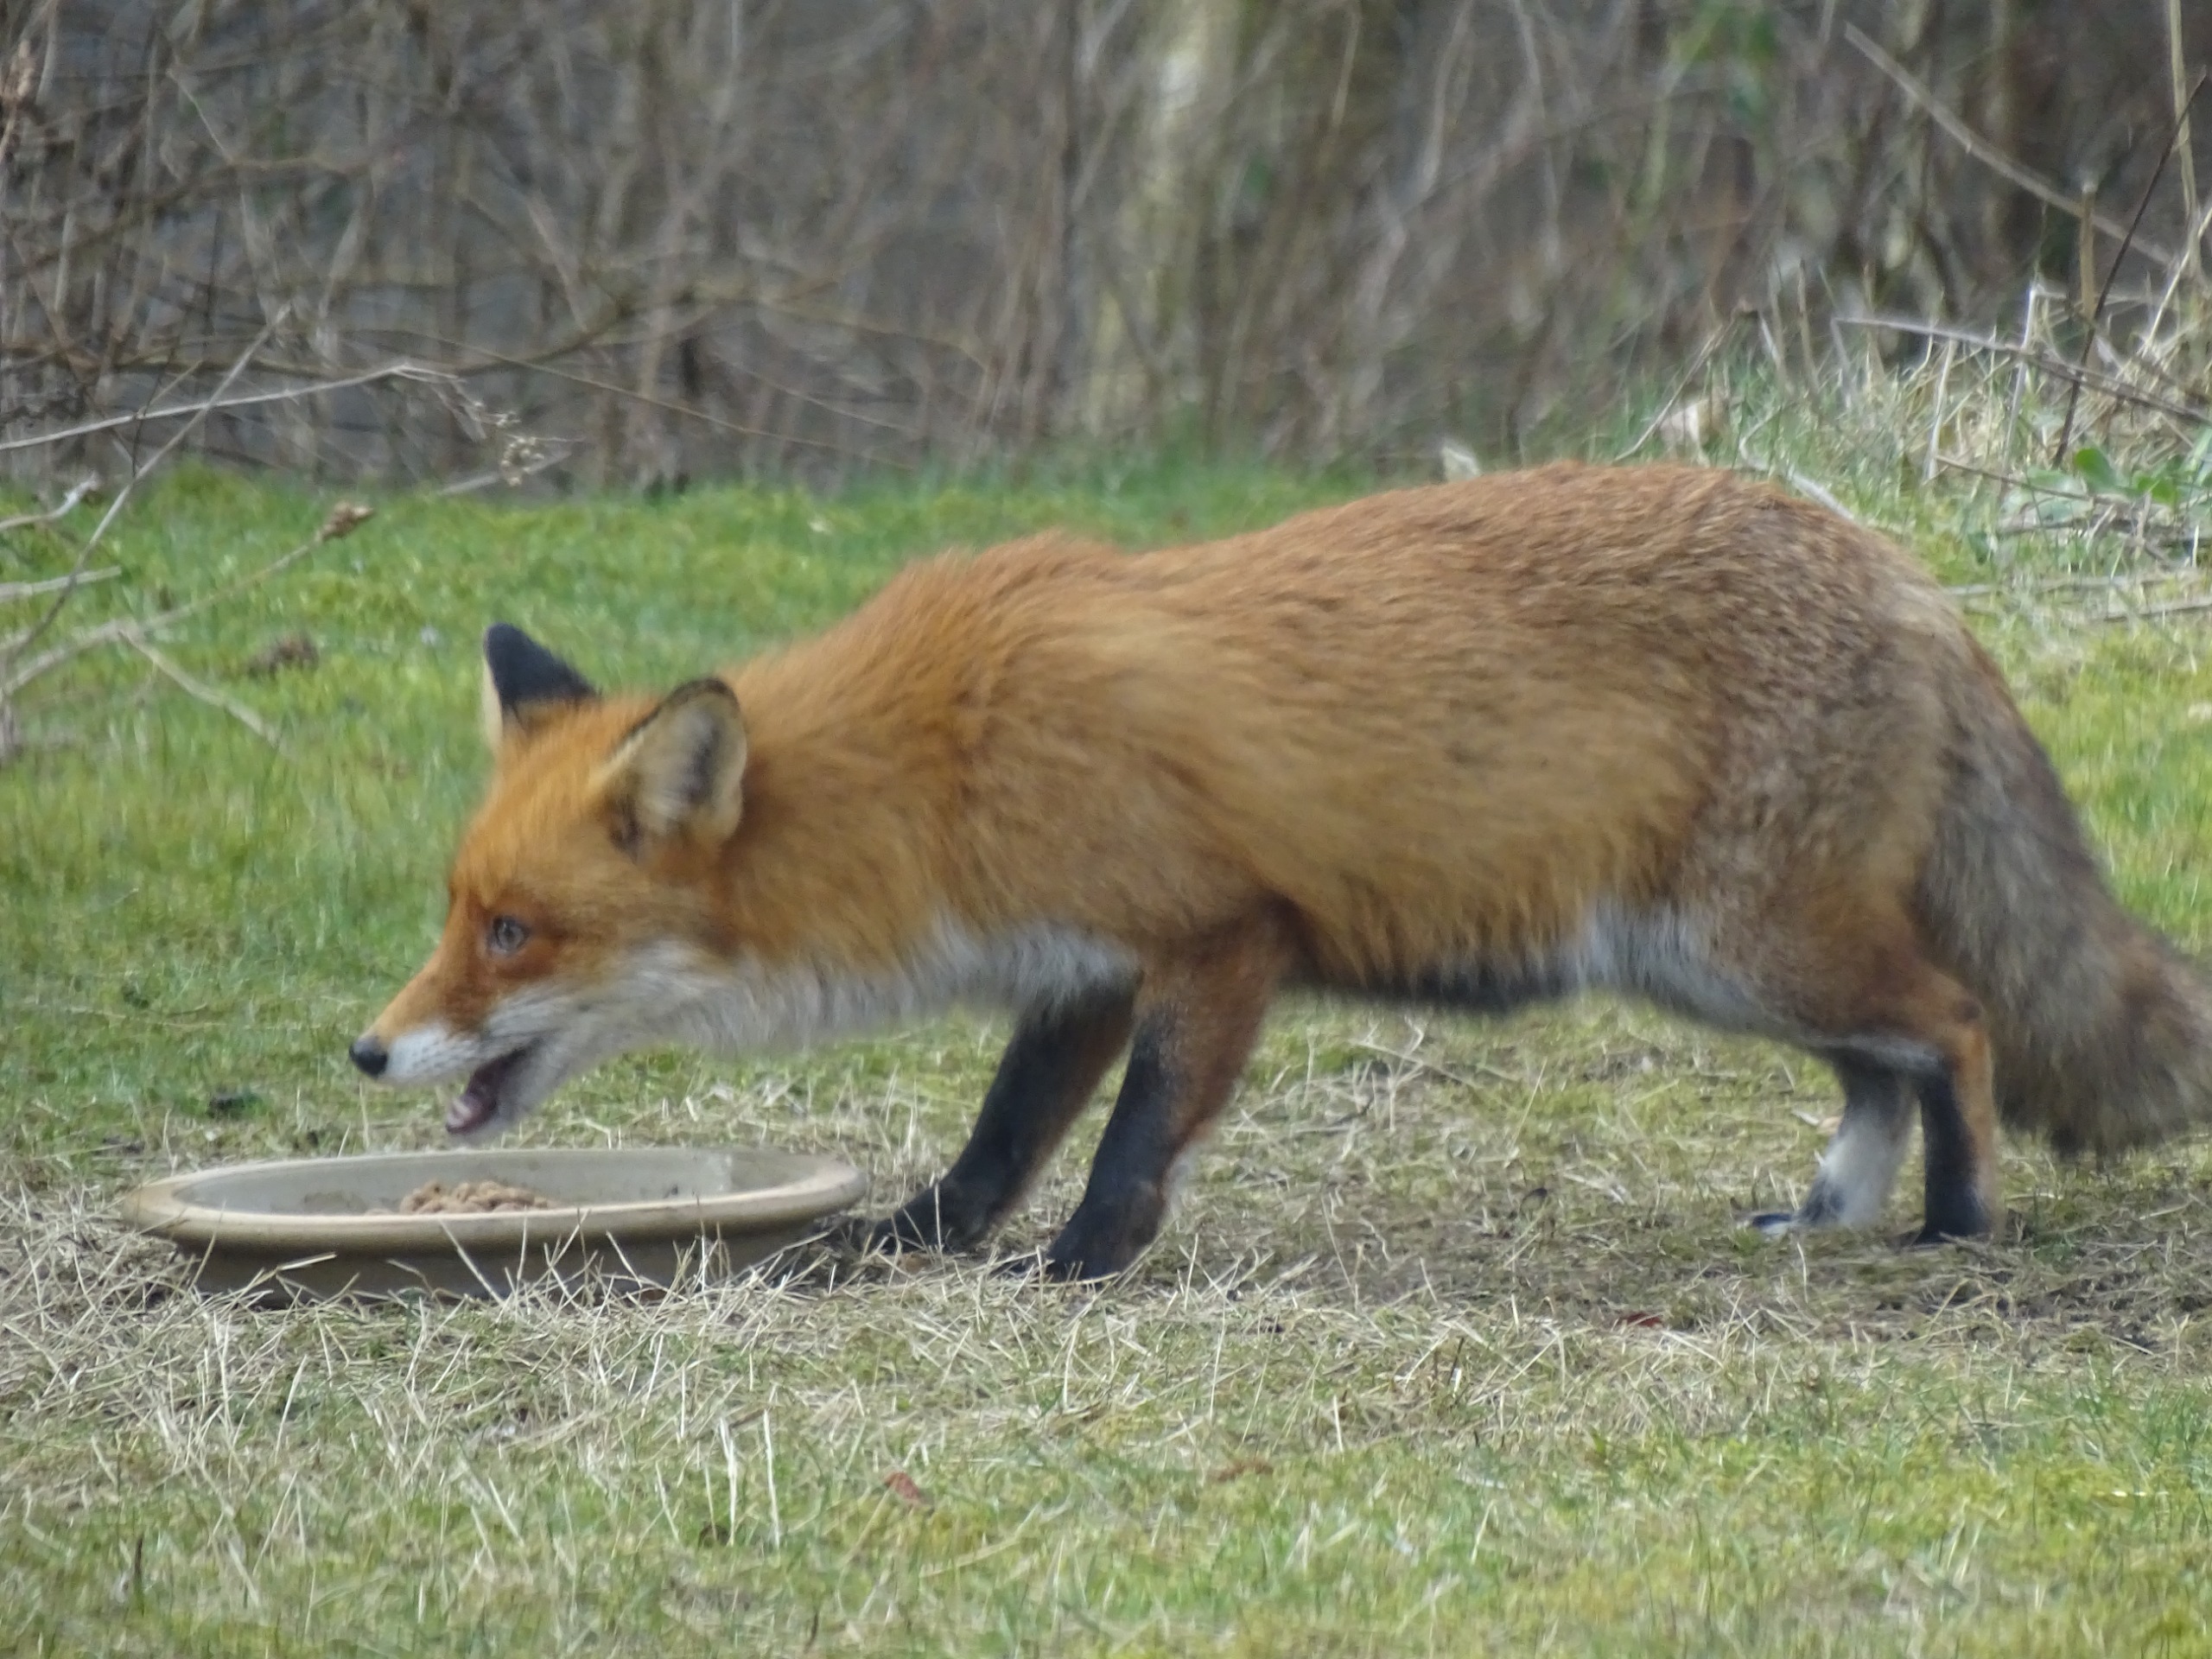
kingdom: Animalia
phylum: Chordata
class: Mammalia
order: Carnivora
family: Canidae
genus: Vulpes
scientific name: Vulpes vulpes
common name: Ræv
